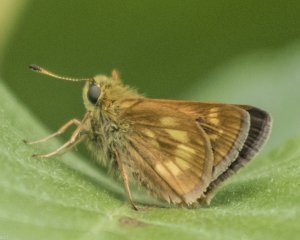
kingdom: Animalia
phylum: Arthropoda
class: Insecta
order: Lepidoptera
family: Hesperiidae
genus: Polites
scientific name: Polites
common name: Long Dash Skipper
